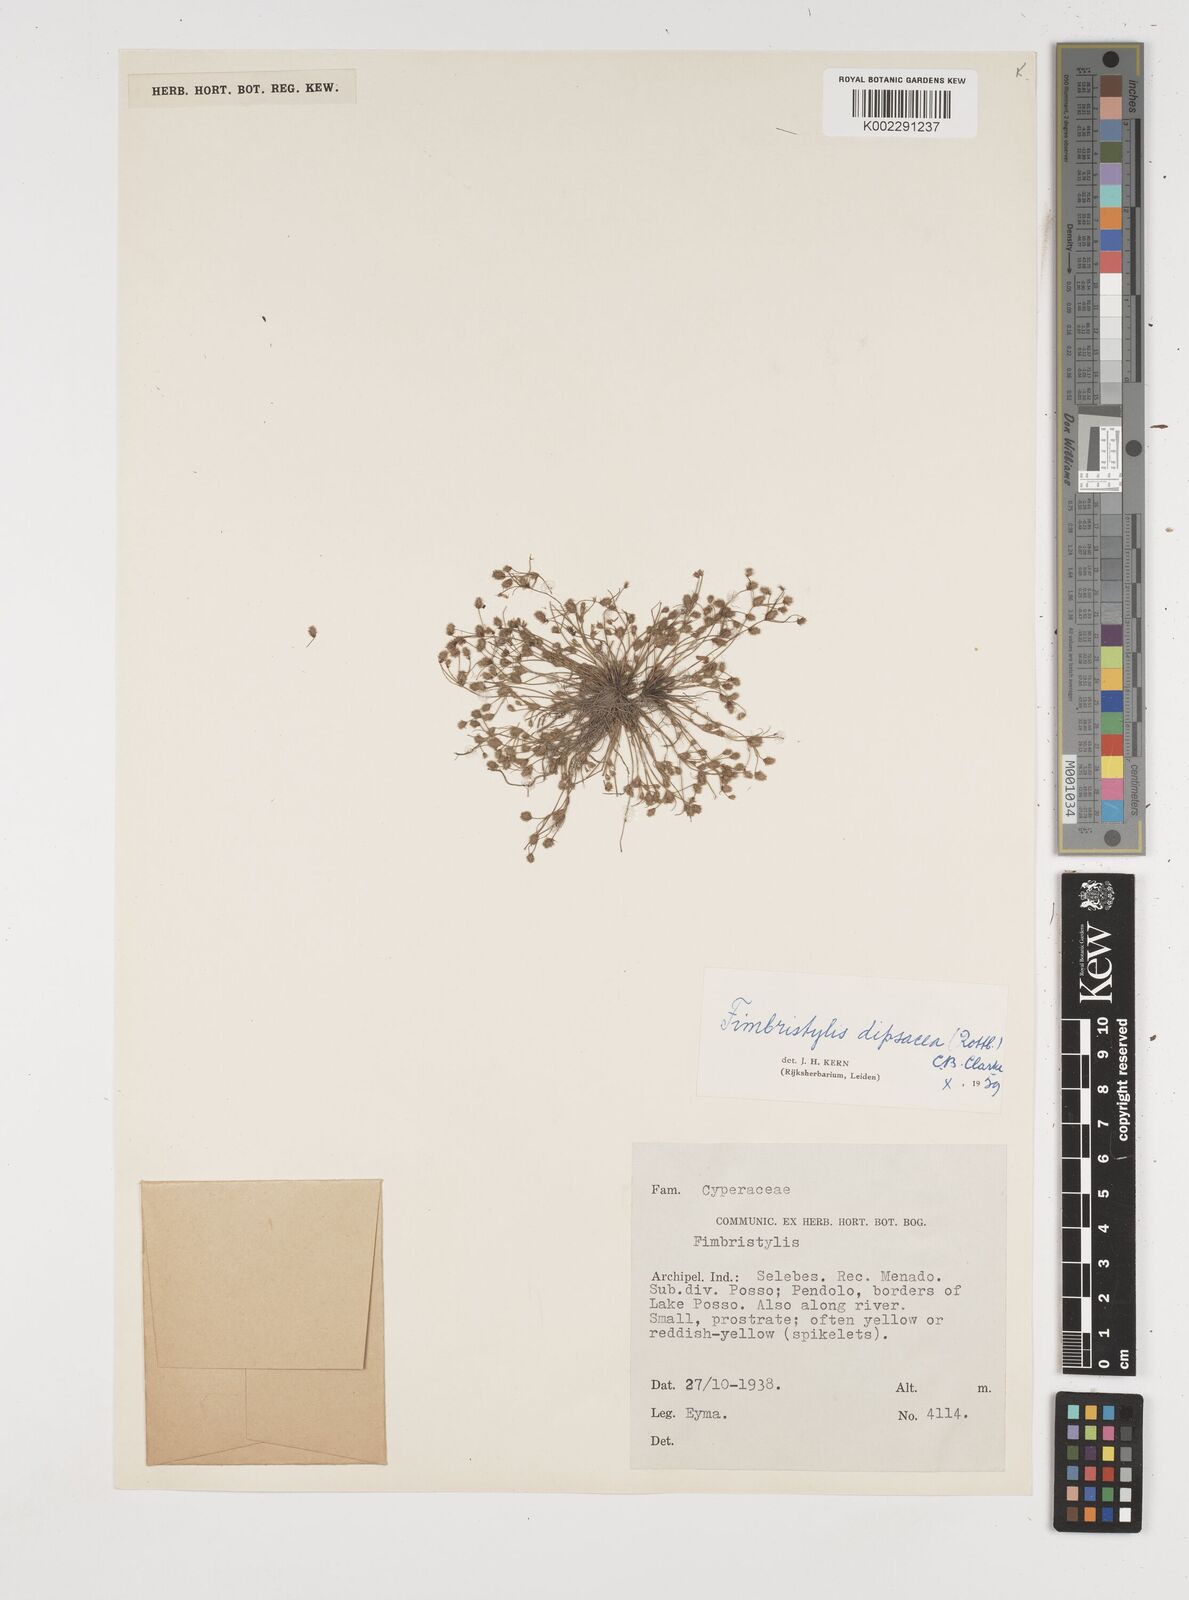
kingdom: Plantae
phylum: Tracheophyta
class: Liliopsida
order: Poales
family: Cyperaceae
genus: Fimbristylis
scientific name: Fimbristylis dipsacea
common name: Harper's fimbristylis
